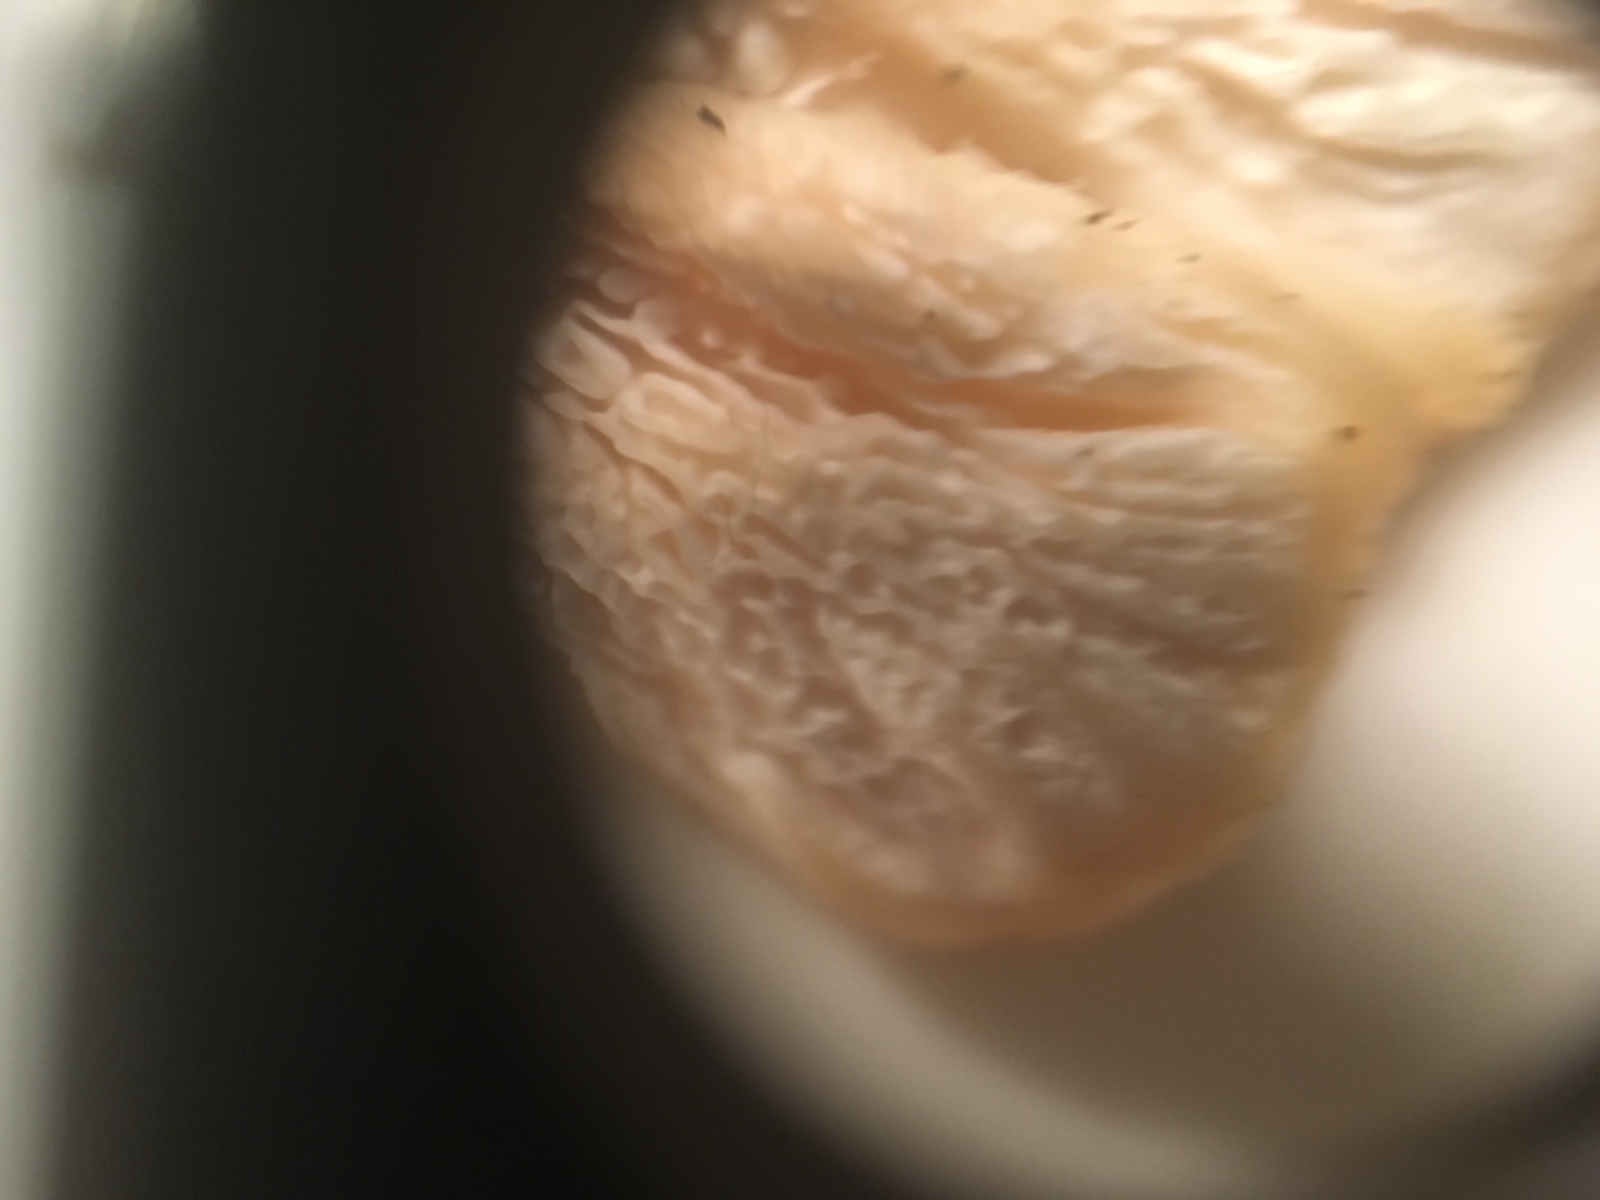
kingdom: Fungi
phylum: Basidiomycota
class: Agaricomycetes
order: Polyporales
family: Podoscyphaceae
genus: Abortiporus
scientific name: Abortiporus biennis
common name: rødmende pjalteporesvamp
